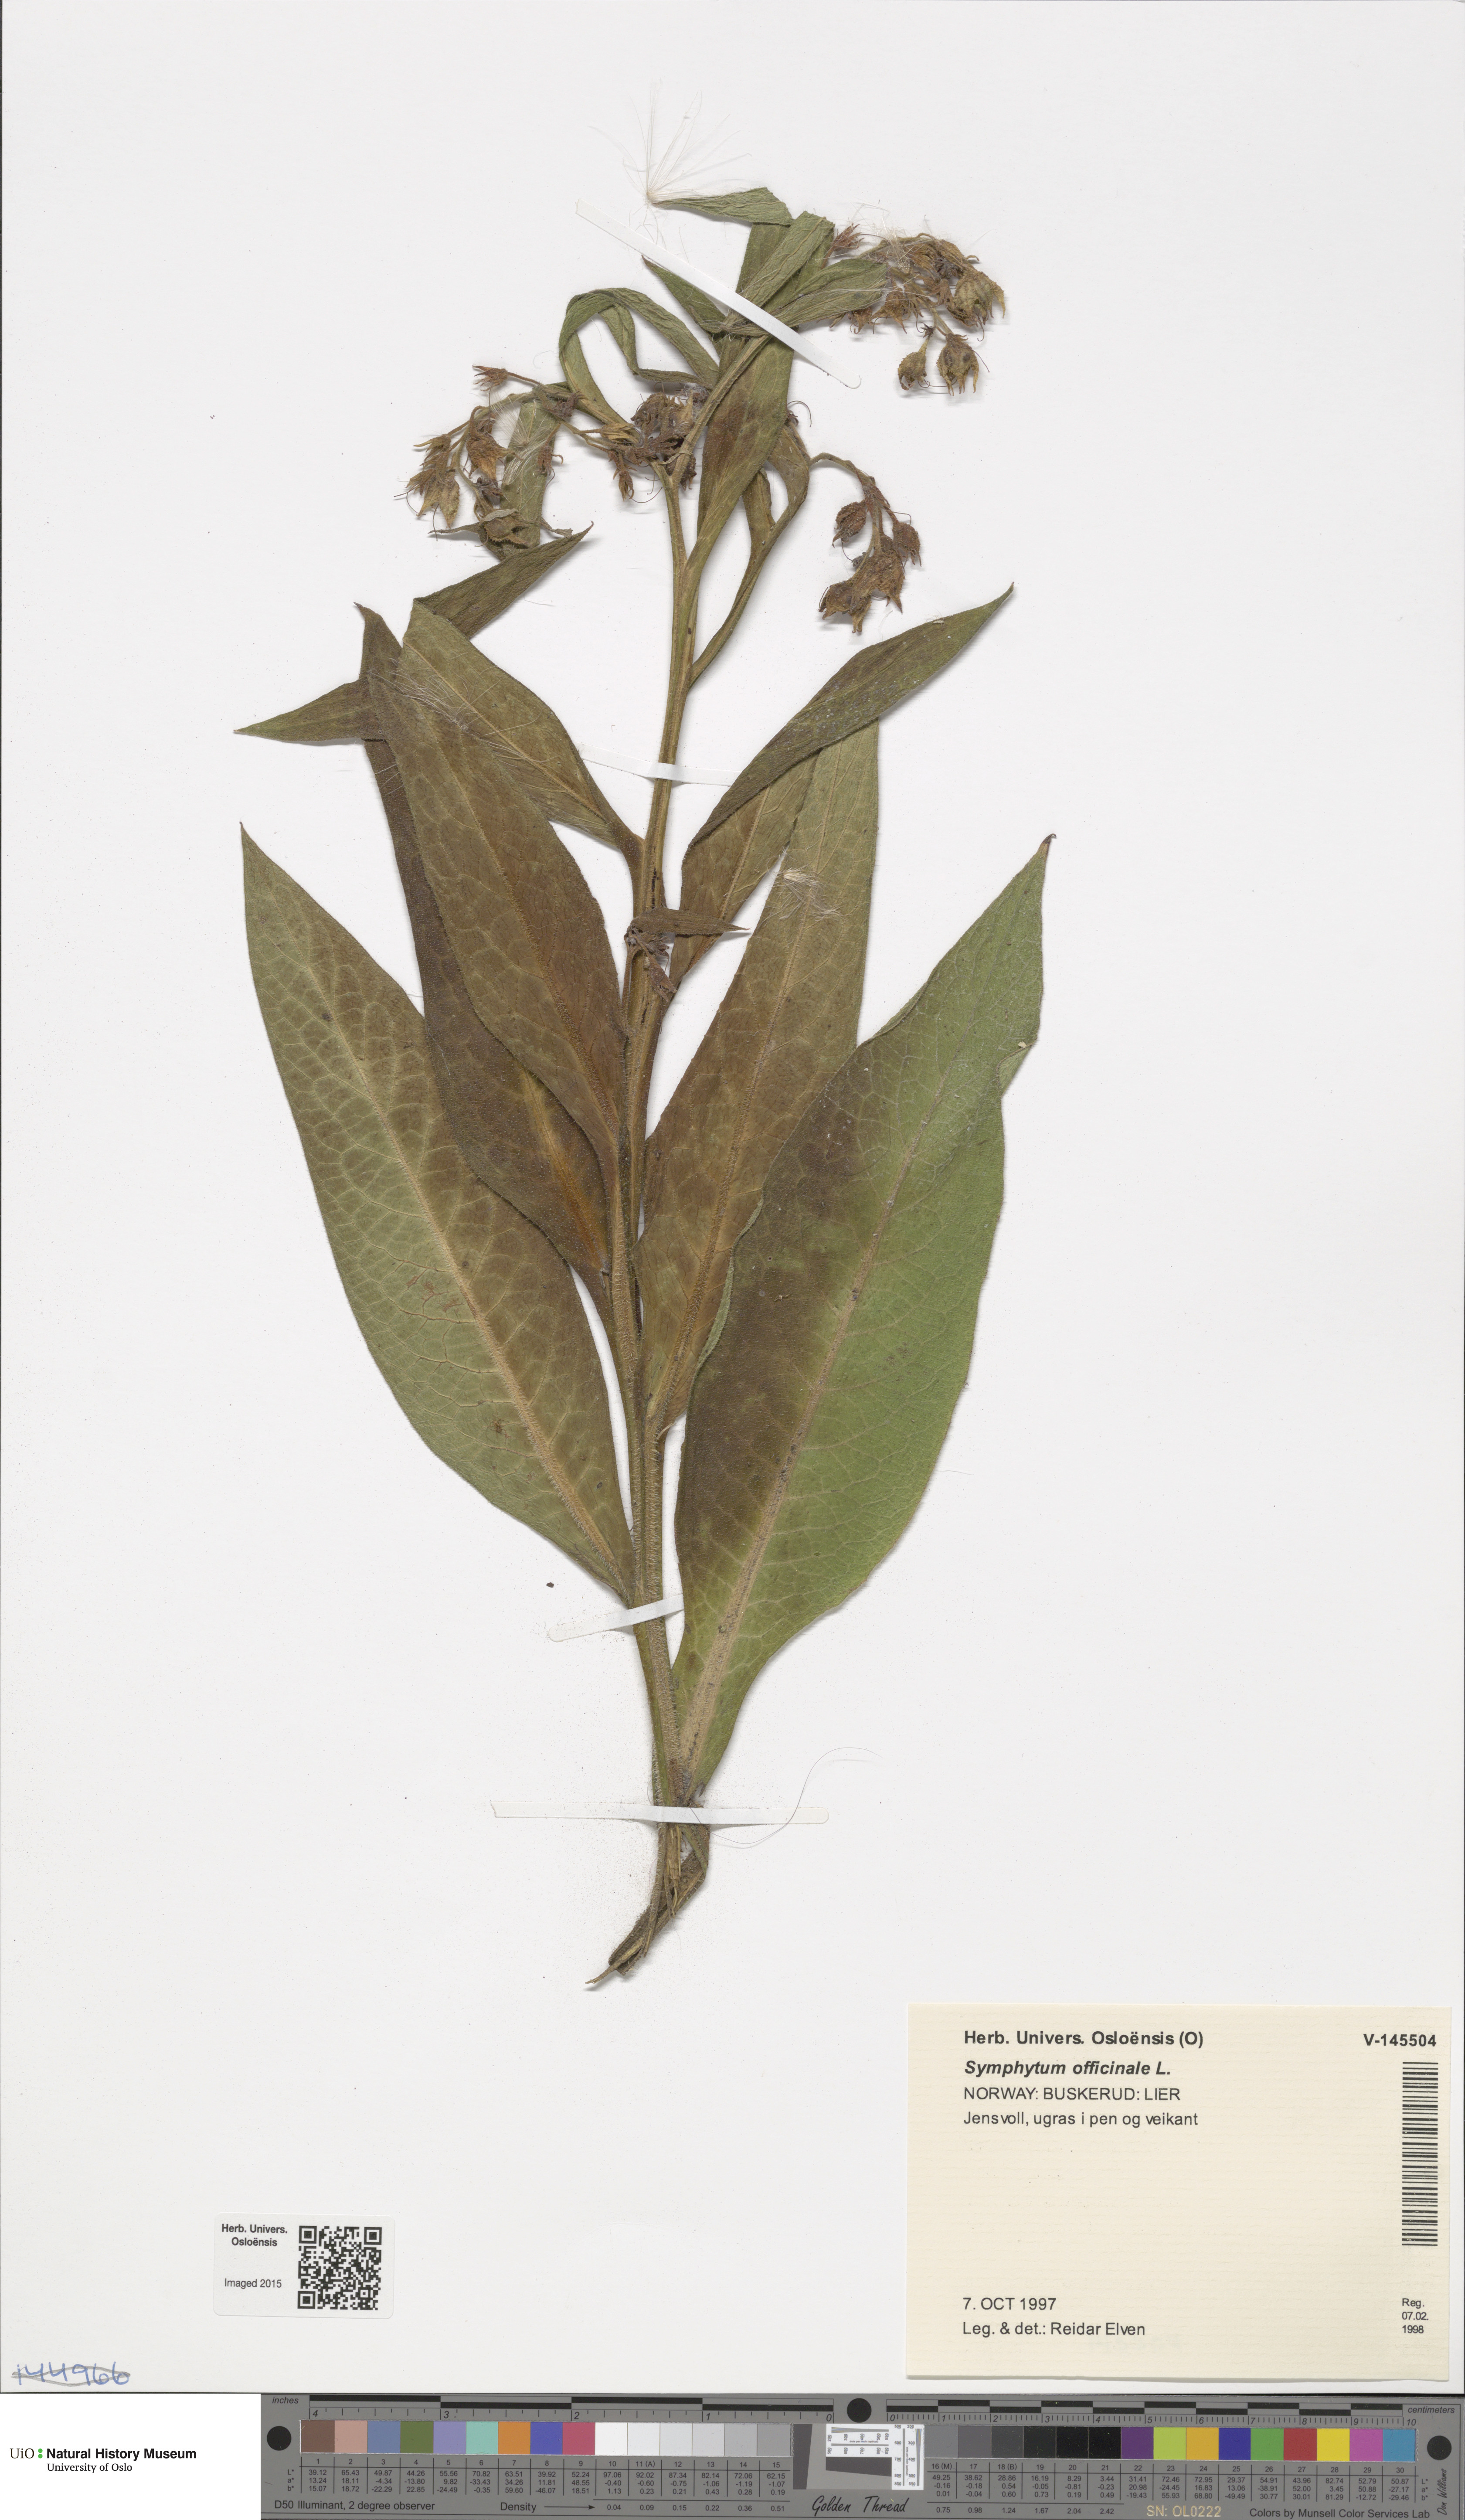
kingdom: Plantae
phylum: Tracheophyta
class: Magnoliopsida
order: Boraginales
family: Boraginaceae
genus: Symphytum
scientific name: Symphytum officinale
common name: Common comfrey
